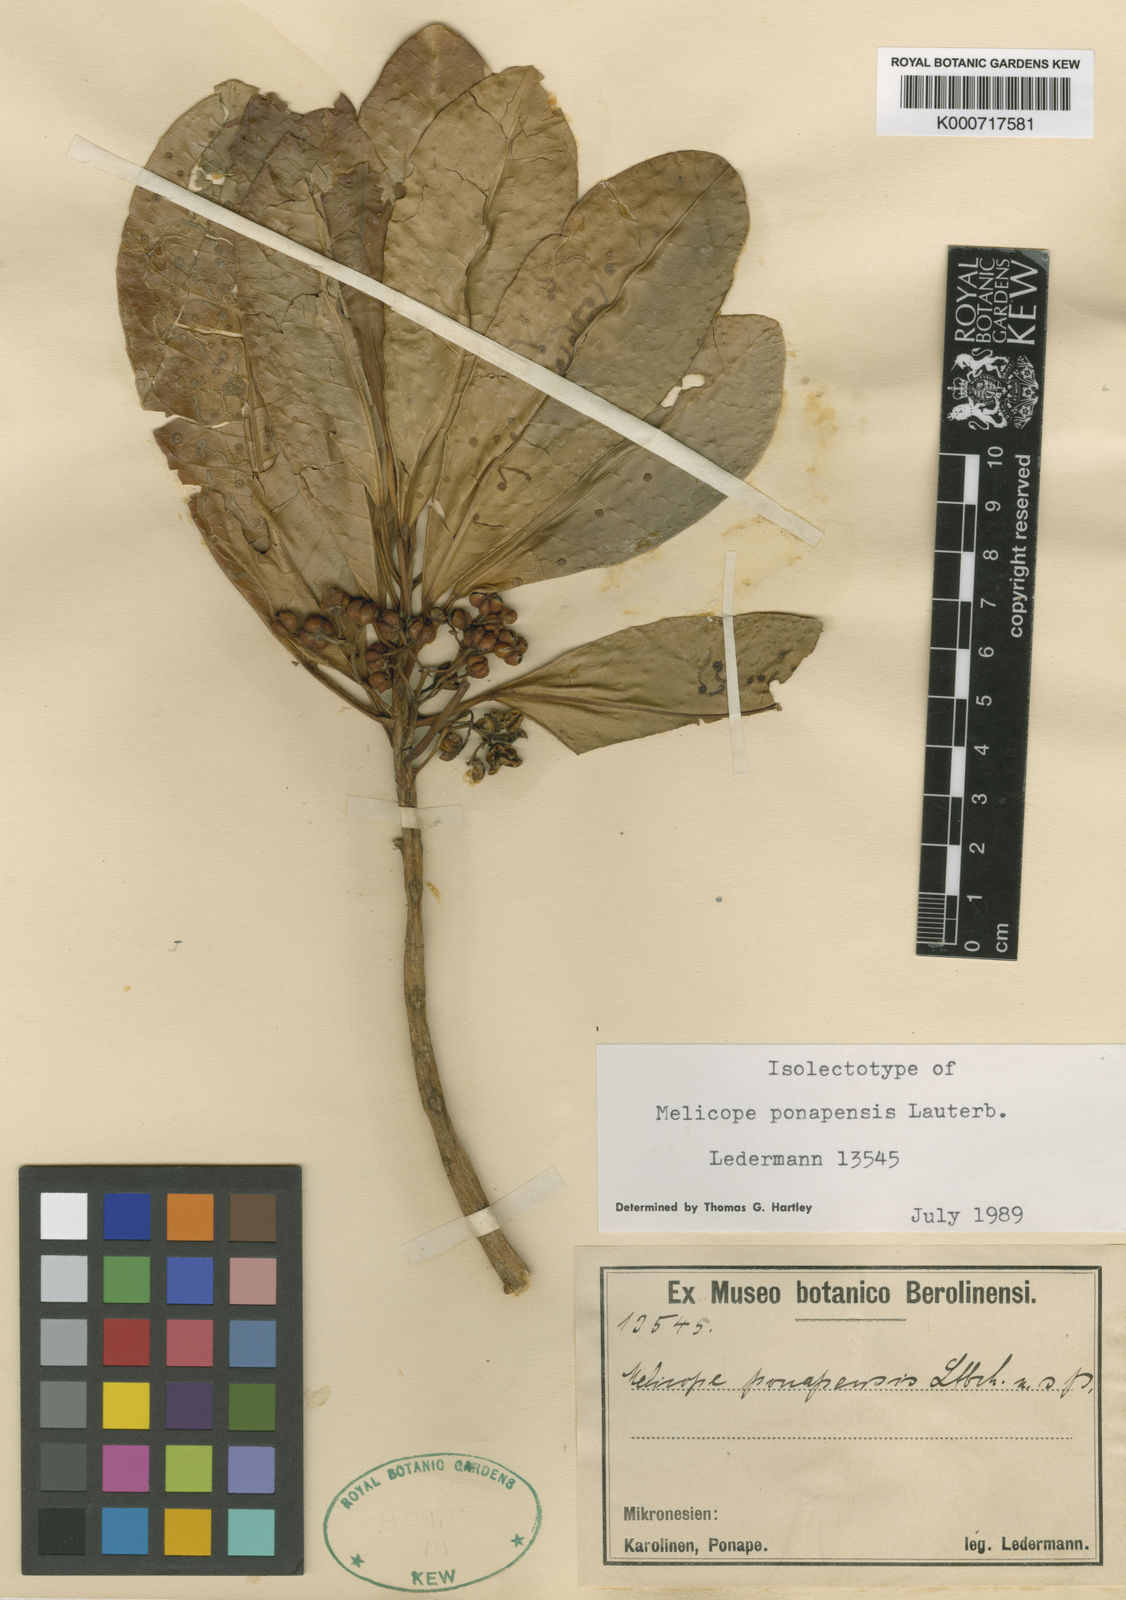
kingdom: Plantae
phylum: Tracheophyta
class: Magnoliopsida
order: Sapindales
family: Rutaceae
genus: Melicope
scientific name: Melicope ponapensis
